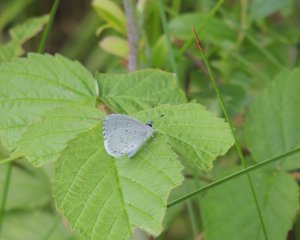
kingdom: Animalia
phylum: Arthropoda
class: Insecta
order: Lepidoptera
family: Lycaenidae
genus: Cyaniris
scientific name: Cyaniris neglecta
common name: Summer Azure
